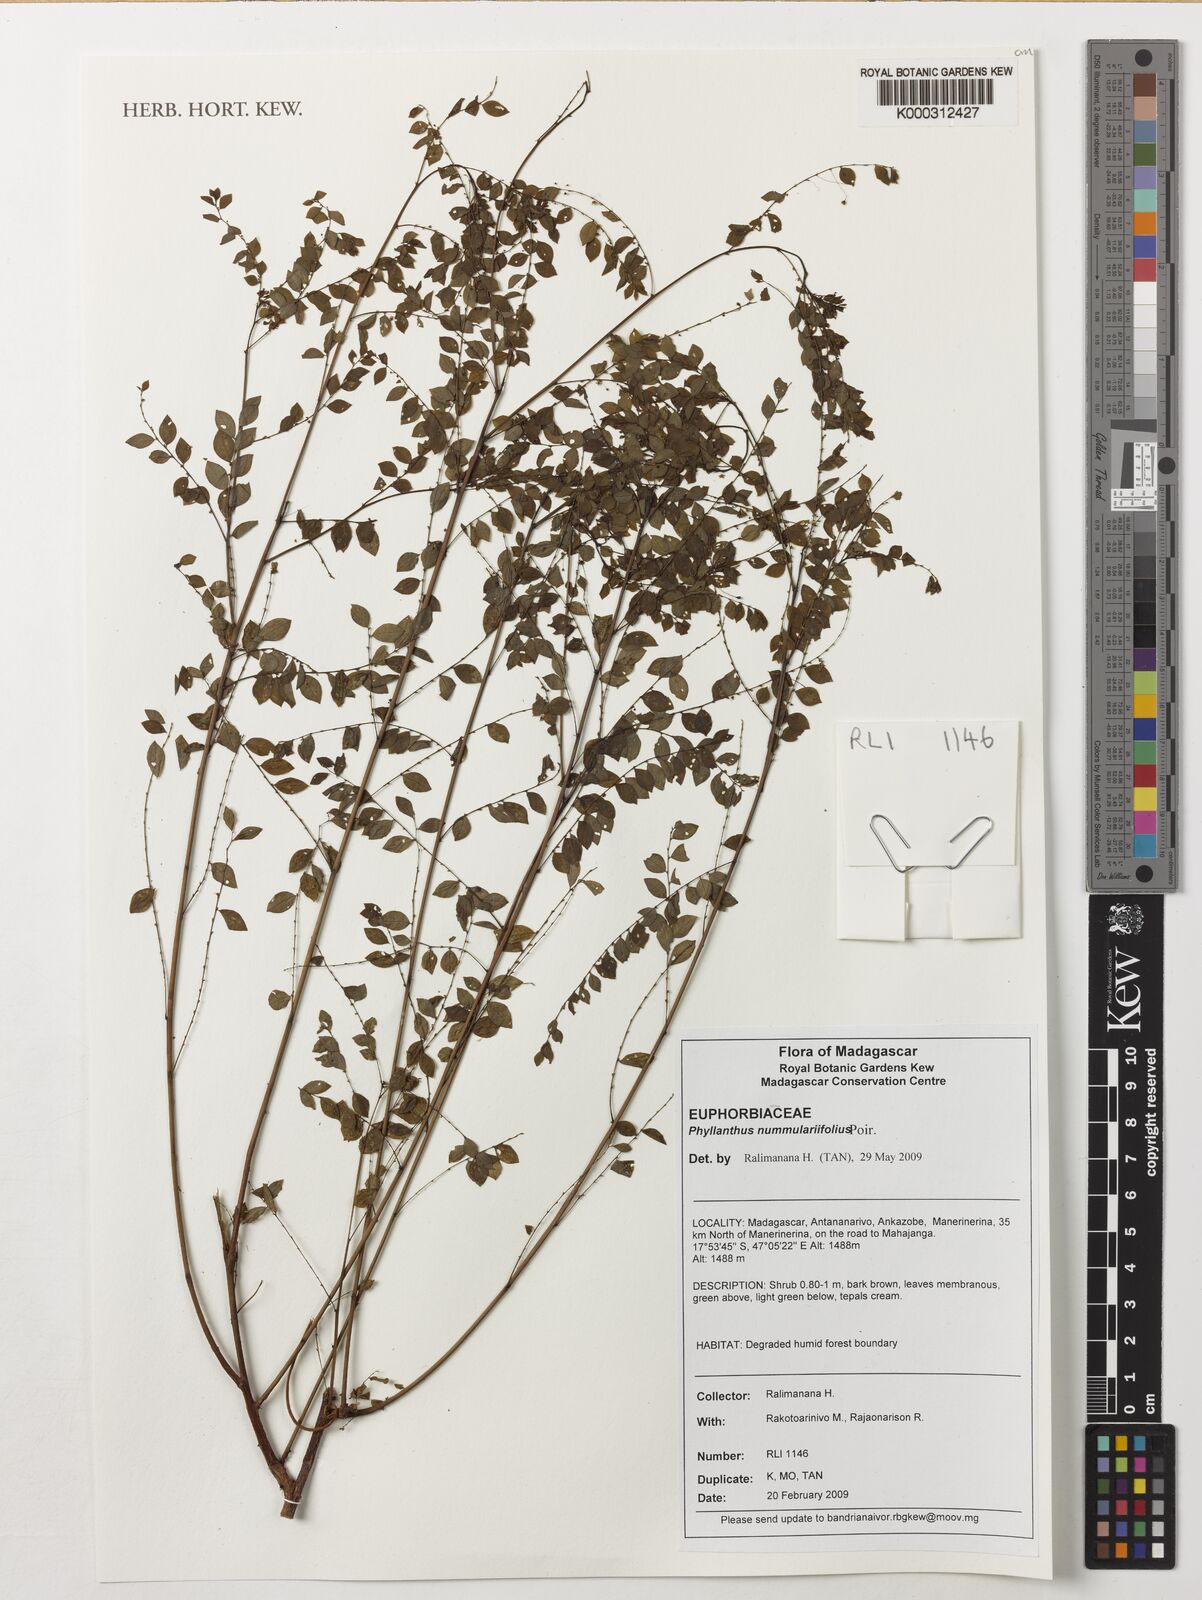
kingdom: Plantae
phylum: Tracheophyta
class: Magnoliopsida
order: Malpighiales
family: Phyllanthaceae
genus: Phyllanthus
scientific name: Phyllanthus nummulariifolius
